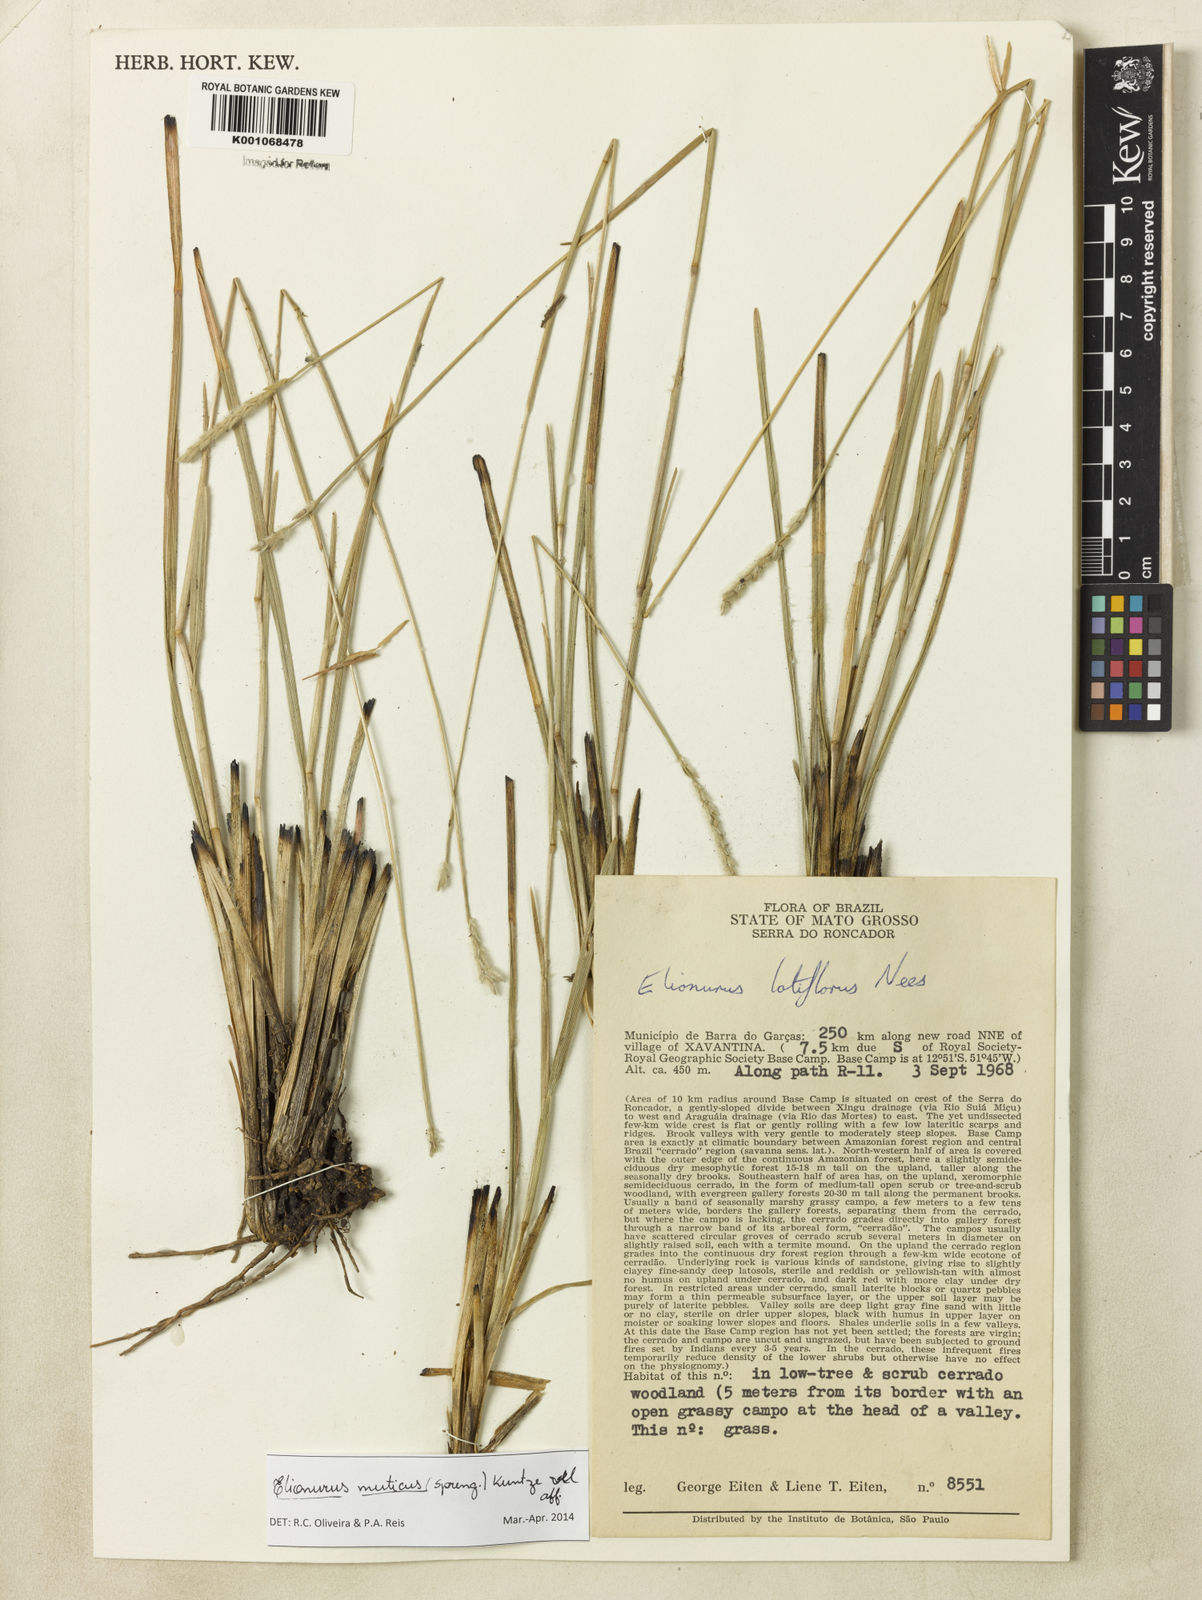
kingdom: Plantae
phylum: Tracheophyta
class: Liliopsida
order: Poales
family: Poaceae
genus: Elionurus
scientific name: Elionurus muticus
